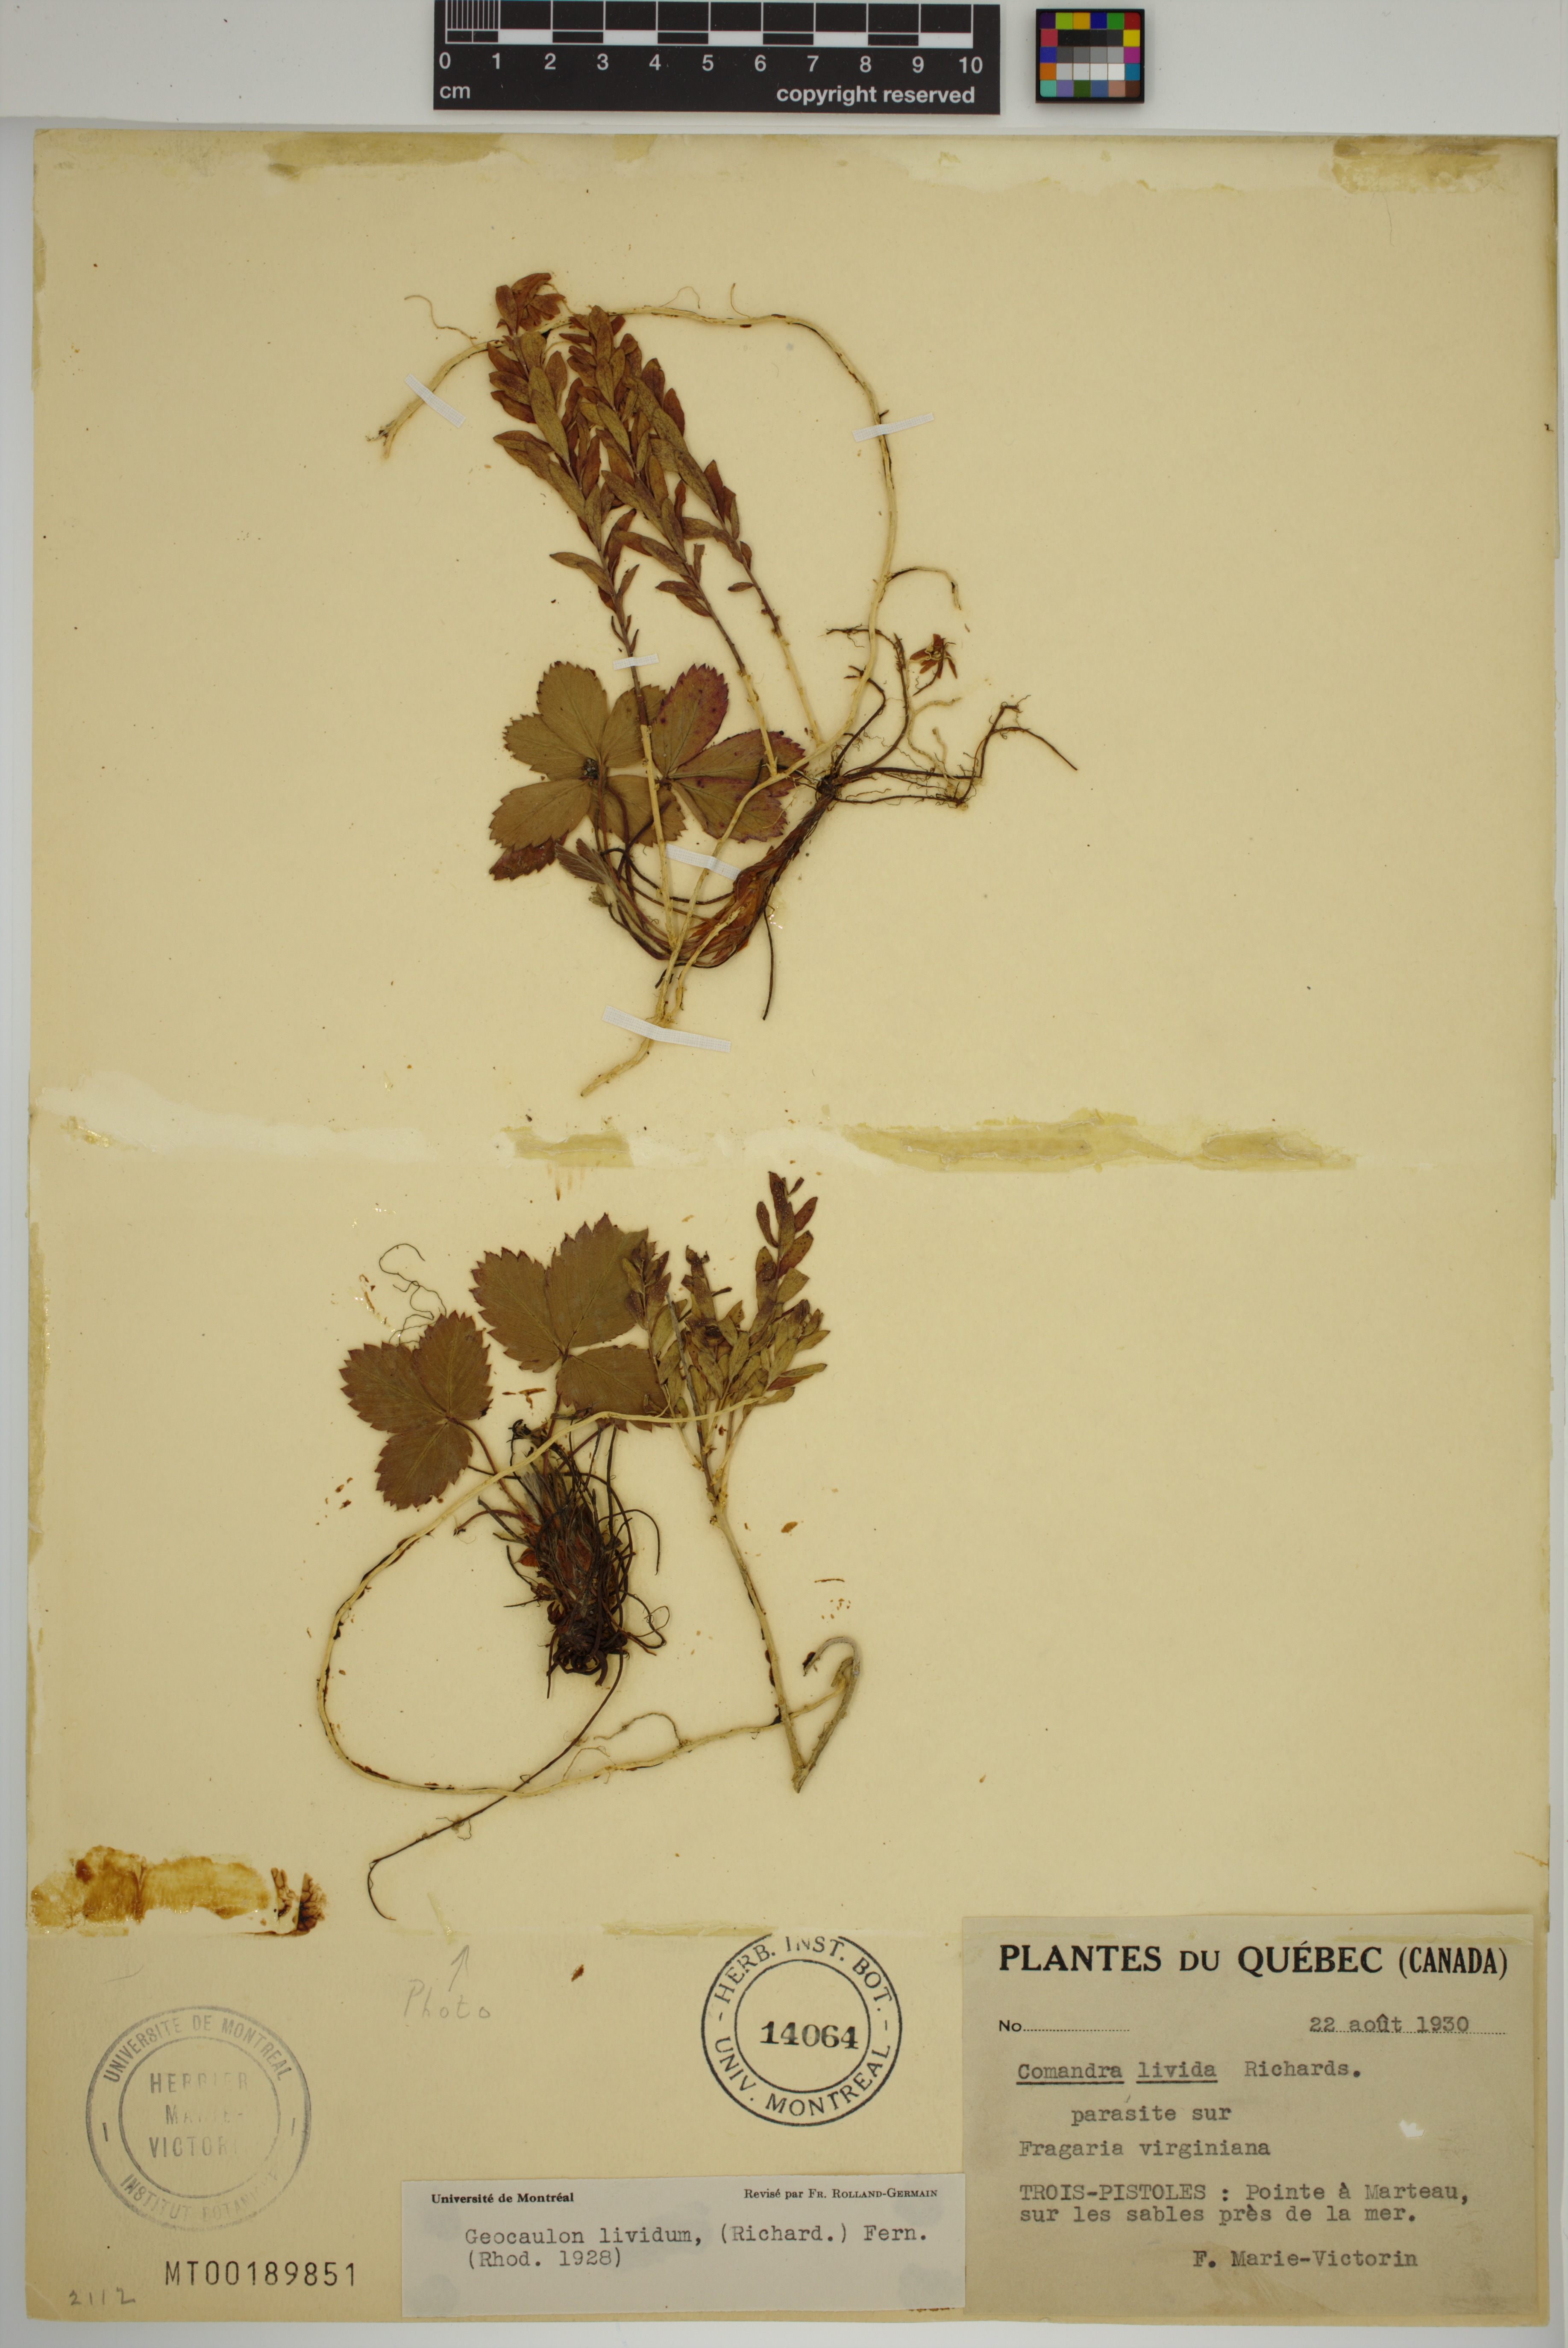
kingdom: Plantae
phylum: Tracheophyta
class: Magnoliopsida
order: Santalales
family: Comandraceae
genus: Geocaulon
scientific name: Geocaulon lividum
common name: Earthberry
